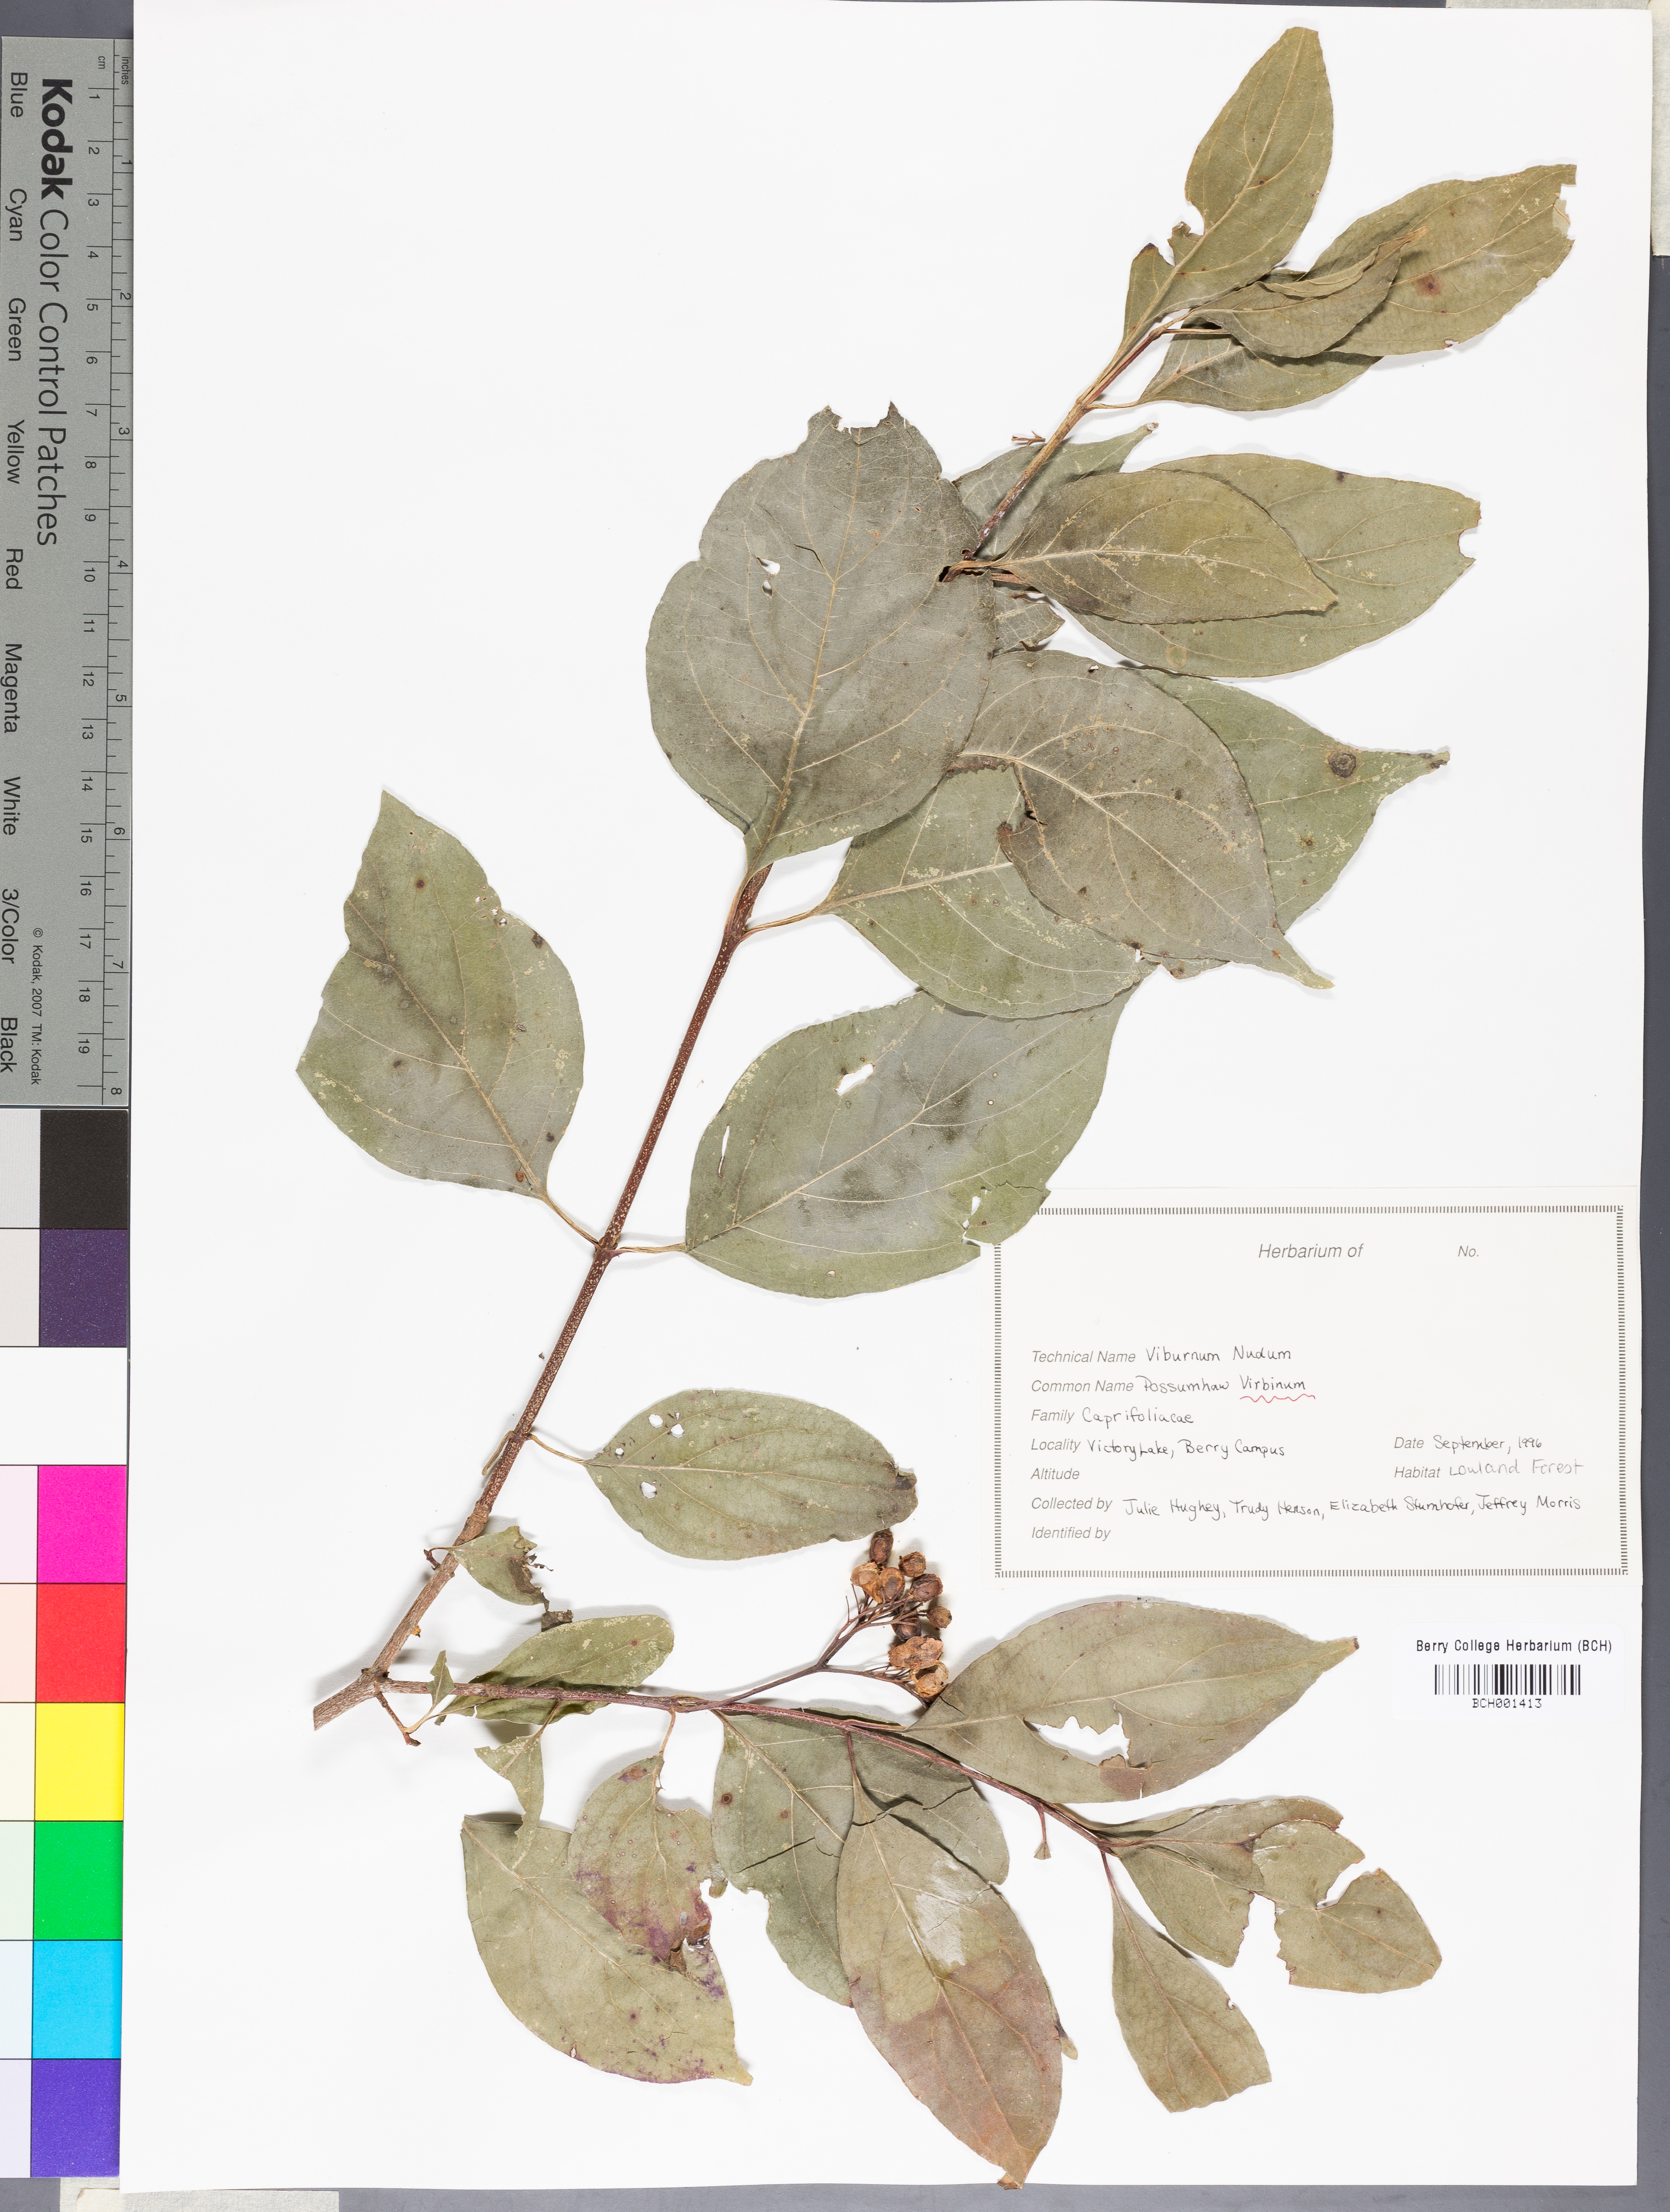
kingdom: Plantae
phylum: Tracheophyta
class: Magnoliopsida
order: Dipsacales
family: Viburnaceae
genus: Viburnum
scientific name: Viburnum nudum
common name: Possum haw
